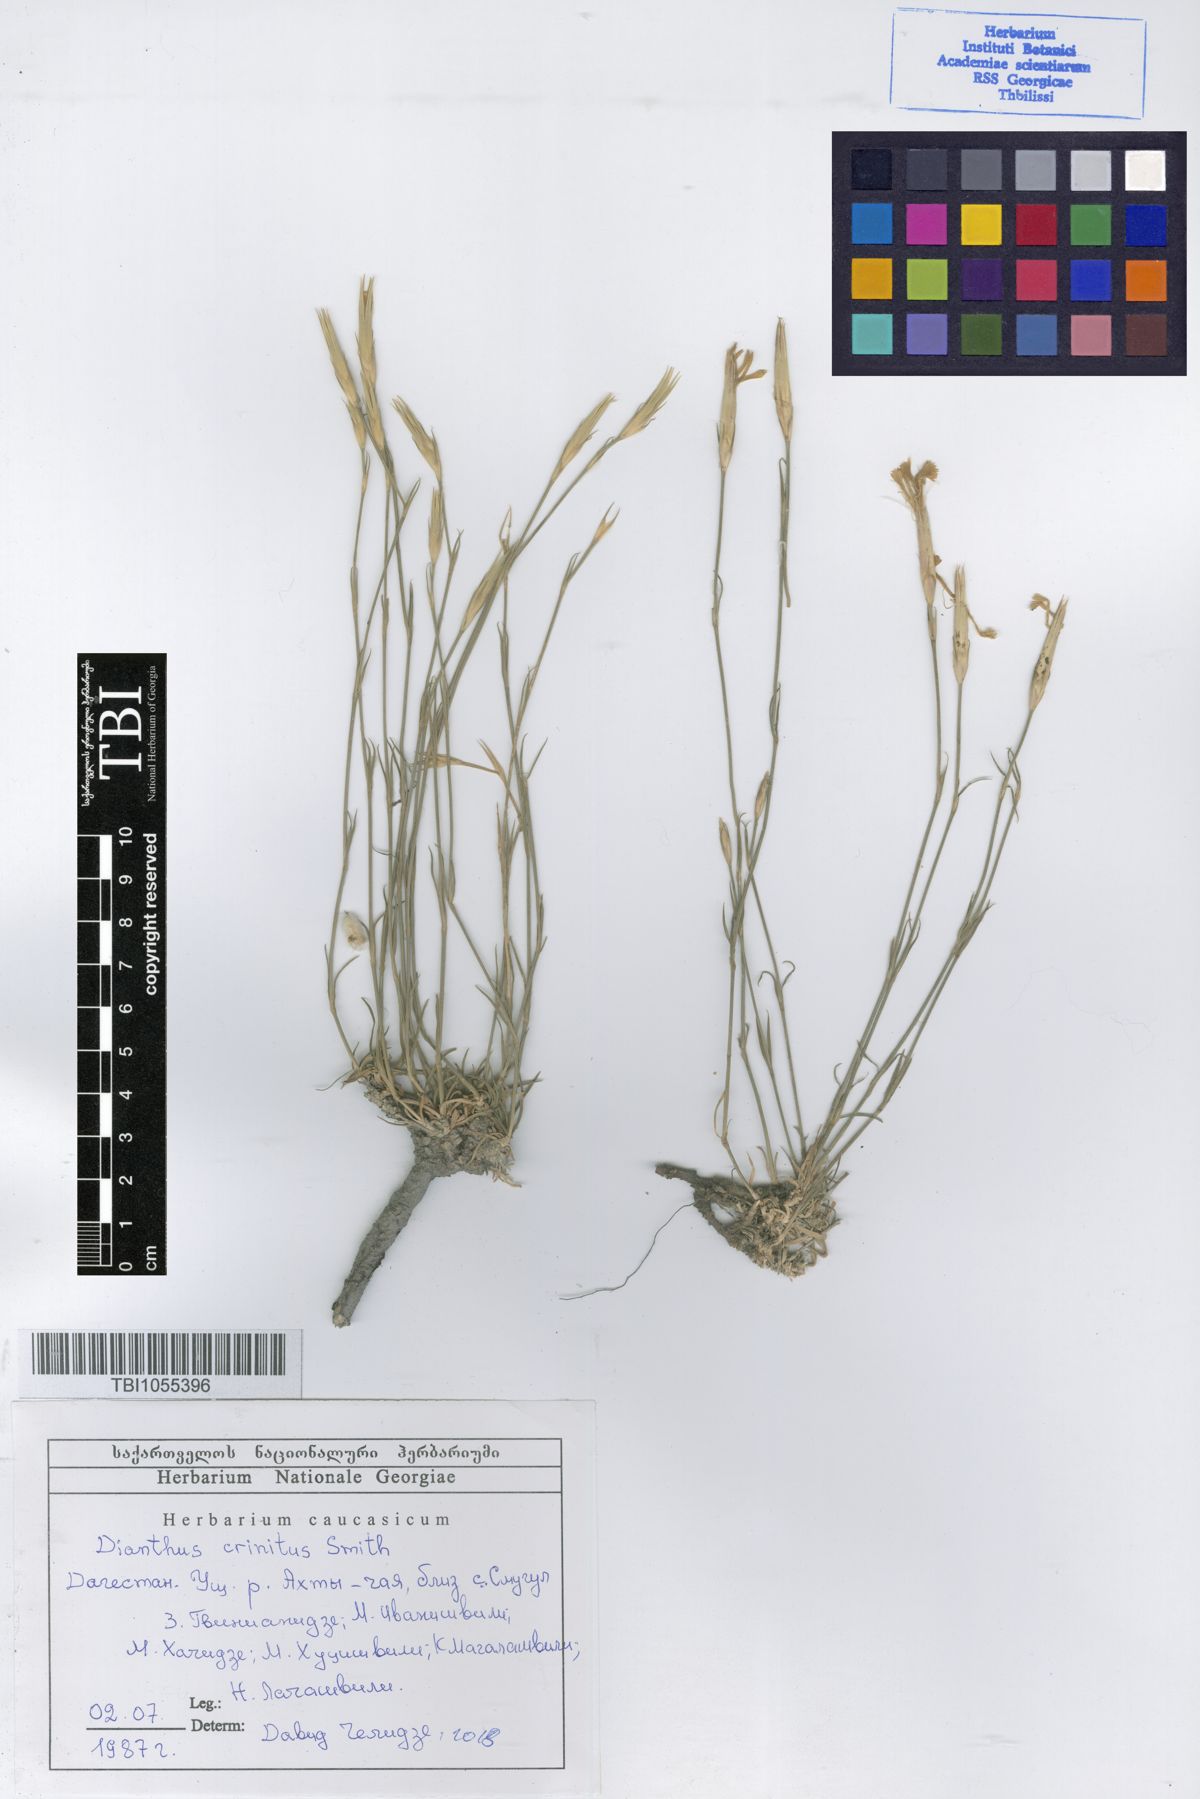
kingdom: Plantae
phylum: Tracheophyta
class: Magnoliopsida
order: Caryophyllales
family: Caryophyllaceae
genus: Dianthus
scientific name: Dianthus crinitus
